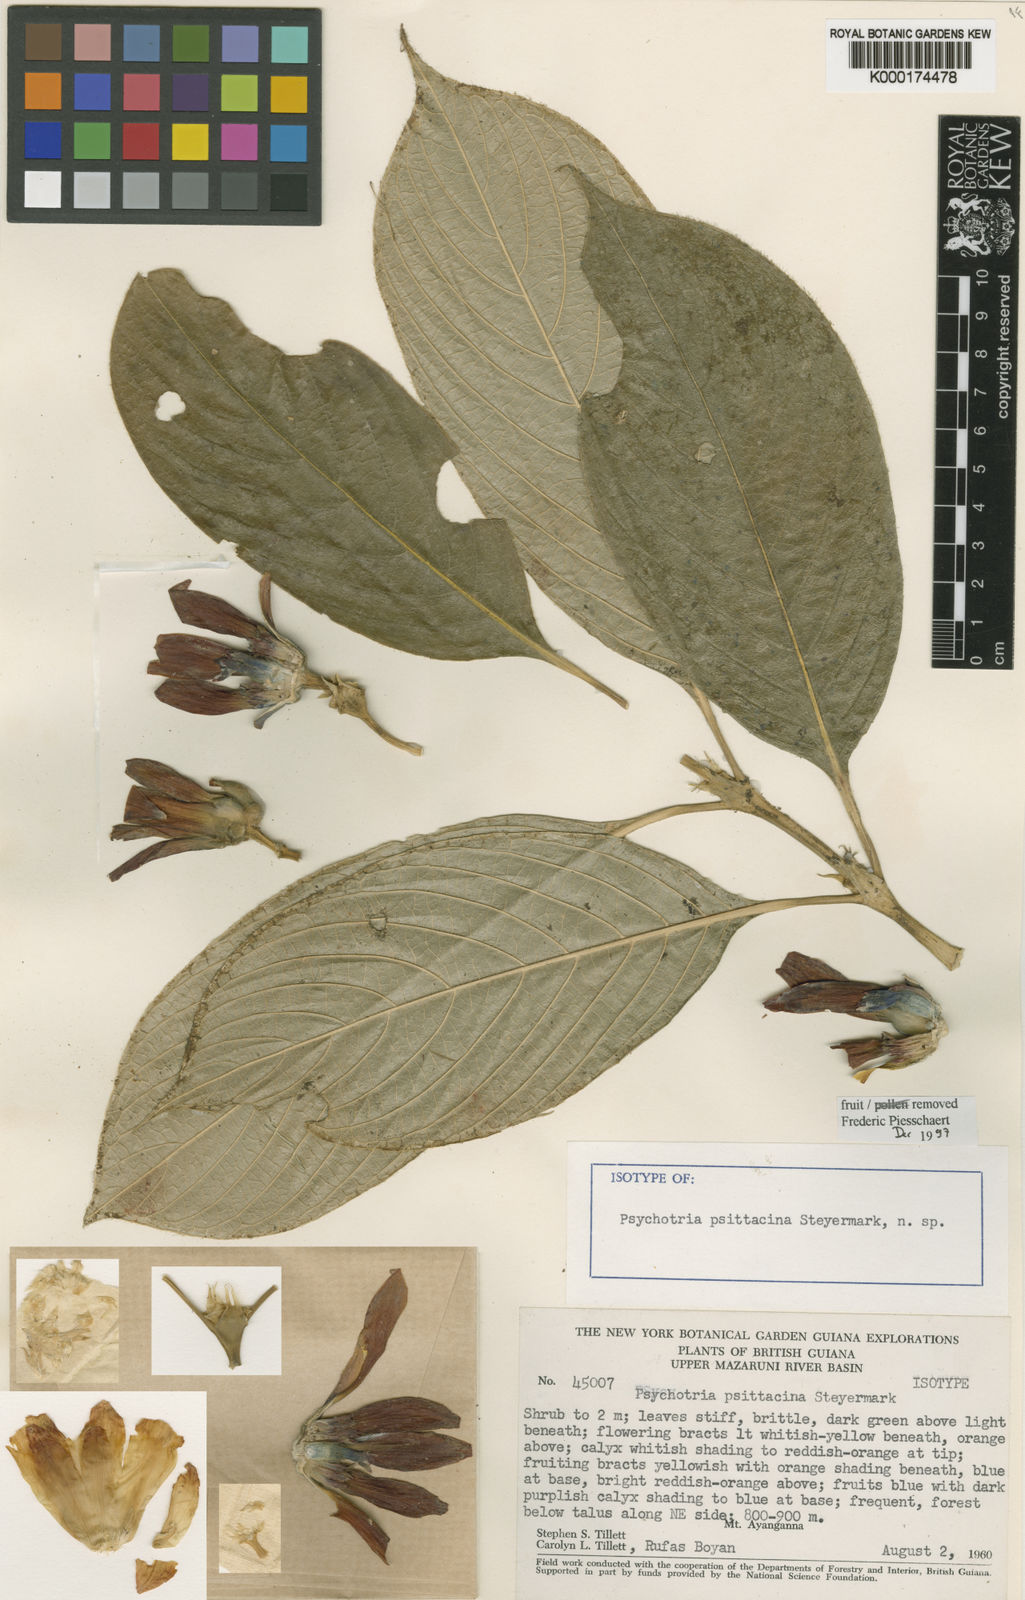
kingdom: Plantae
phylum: Tracheophyta
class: Magnoliopsida
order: Gentianales
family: Rubiaceae
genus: Palicourea
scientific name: Palicourea psittacina
